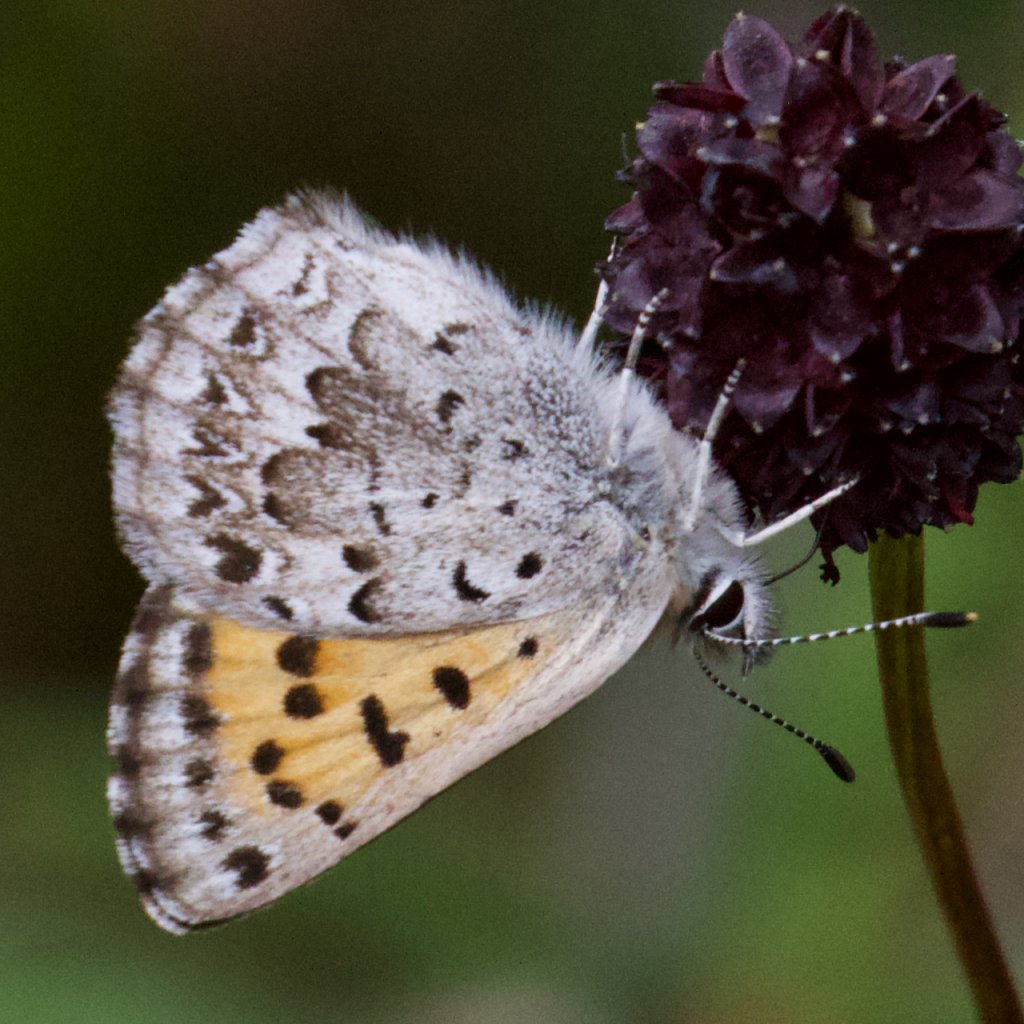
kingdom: Animalia
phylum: Arthropoda
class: Insecta
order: Lepidoptera
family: Lycaenidae
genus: Lycaena
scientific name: Lycaena mariposa
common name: Mariposa Copper
